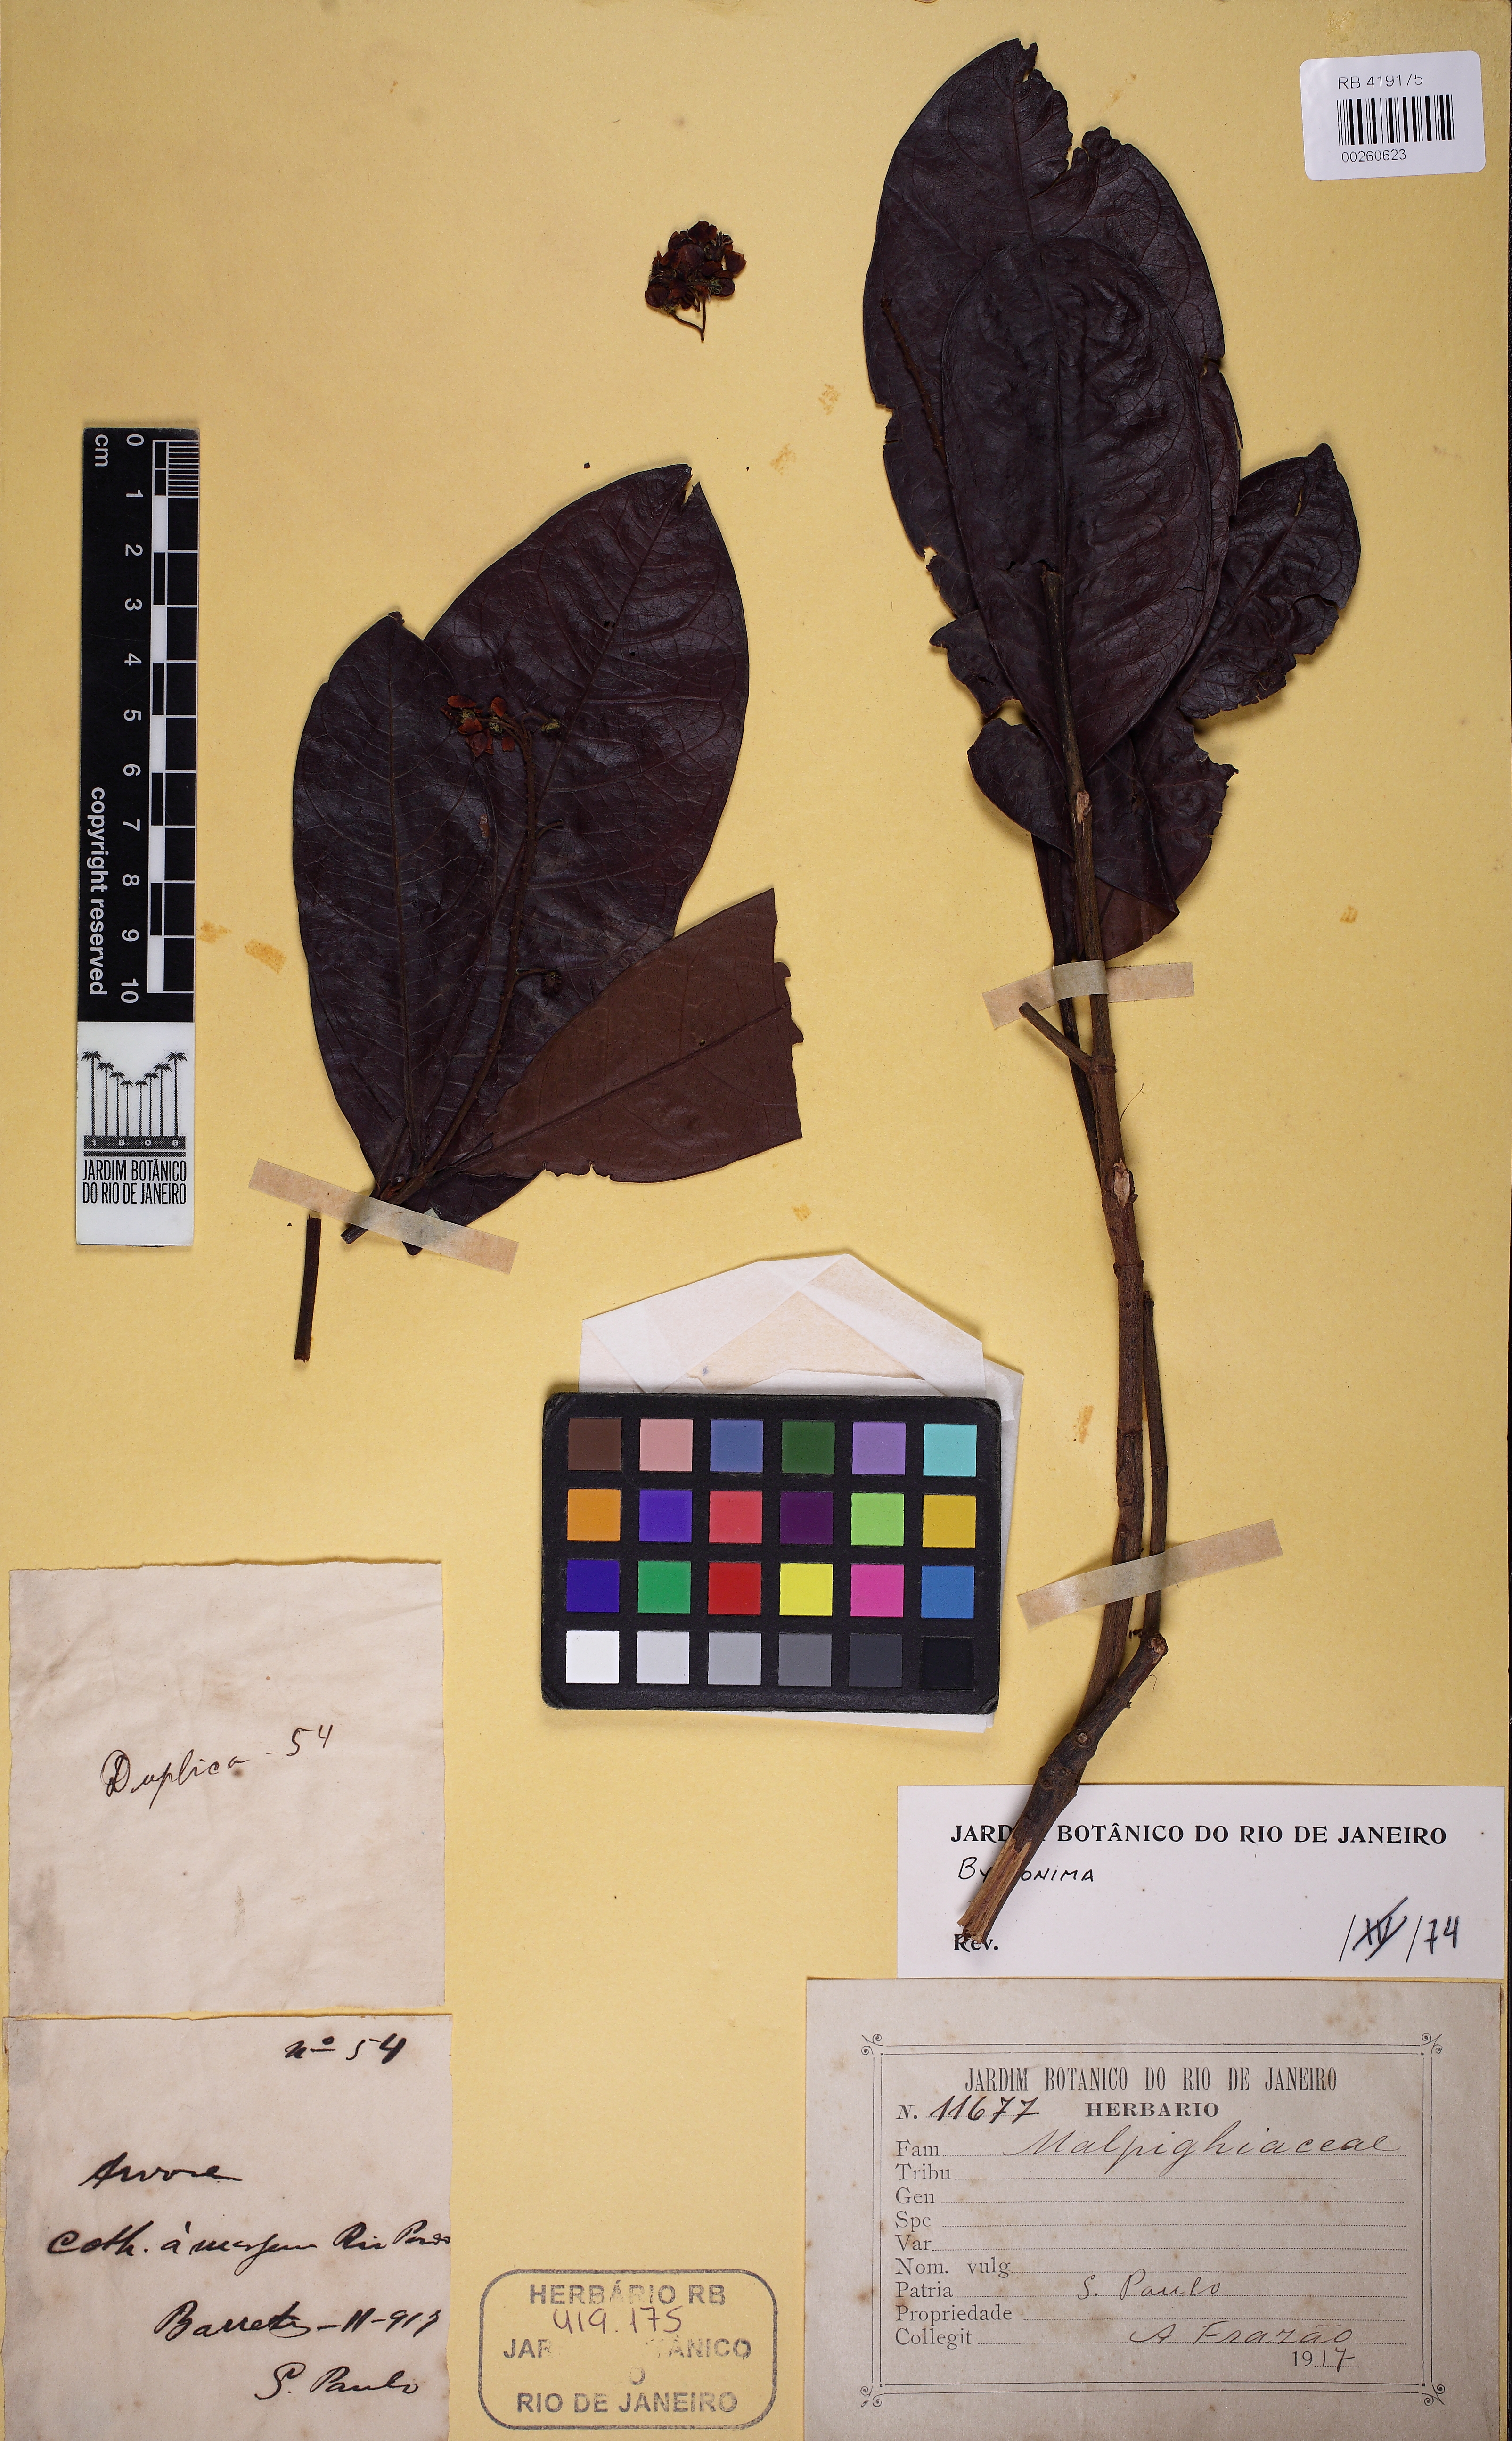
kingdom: Plantae
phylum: Tracheophyta
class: Magnoliopsida
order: Malpighiales
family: Malpighiaceae
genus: Byrsonima
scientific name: Byrsonima
